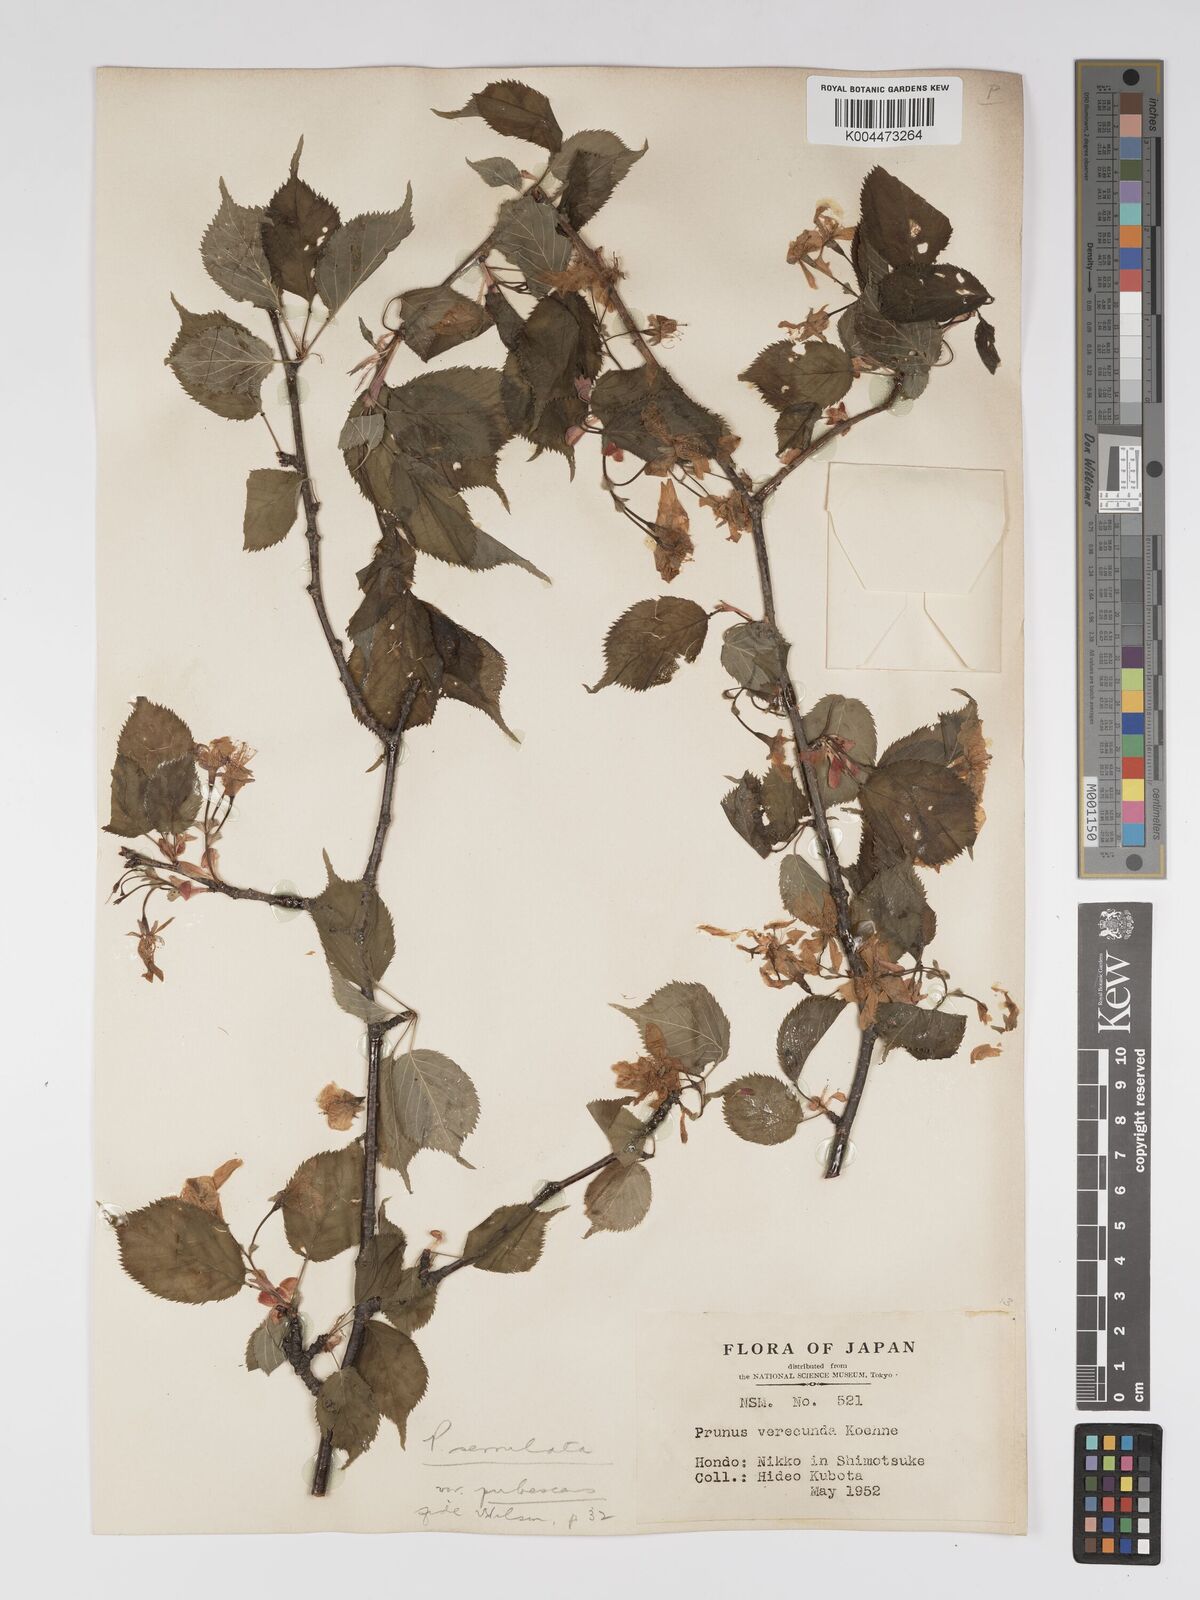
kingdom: Plantae
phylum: Tracheophyta
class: Magnoliopsida
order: Rosales
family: Rosaceae
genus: Prunus
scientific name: Prunus serrulata
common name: Japanese cherry
